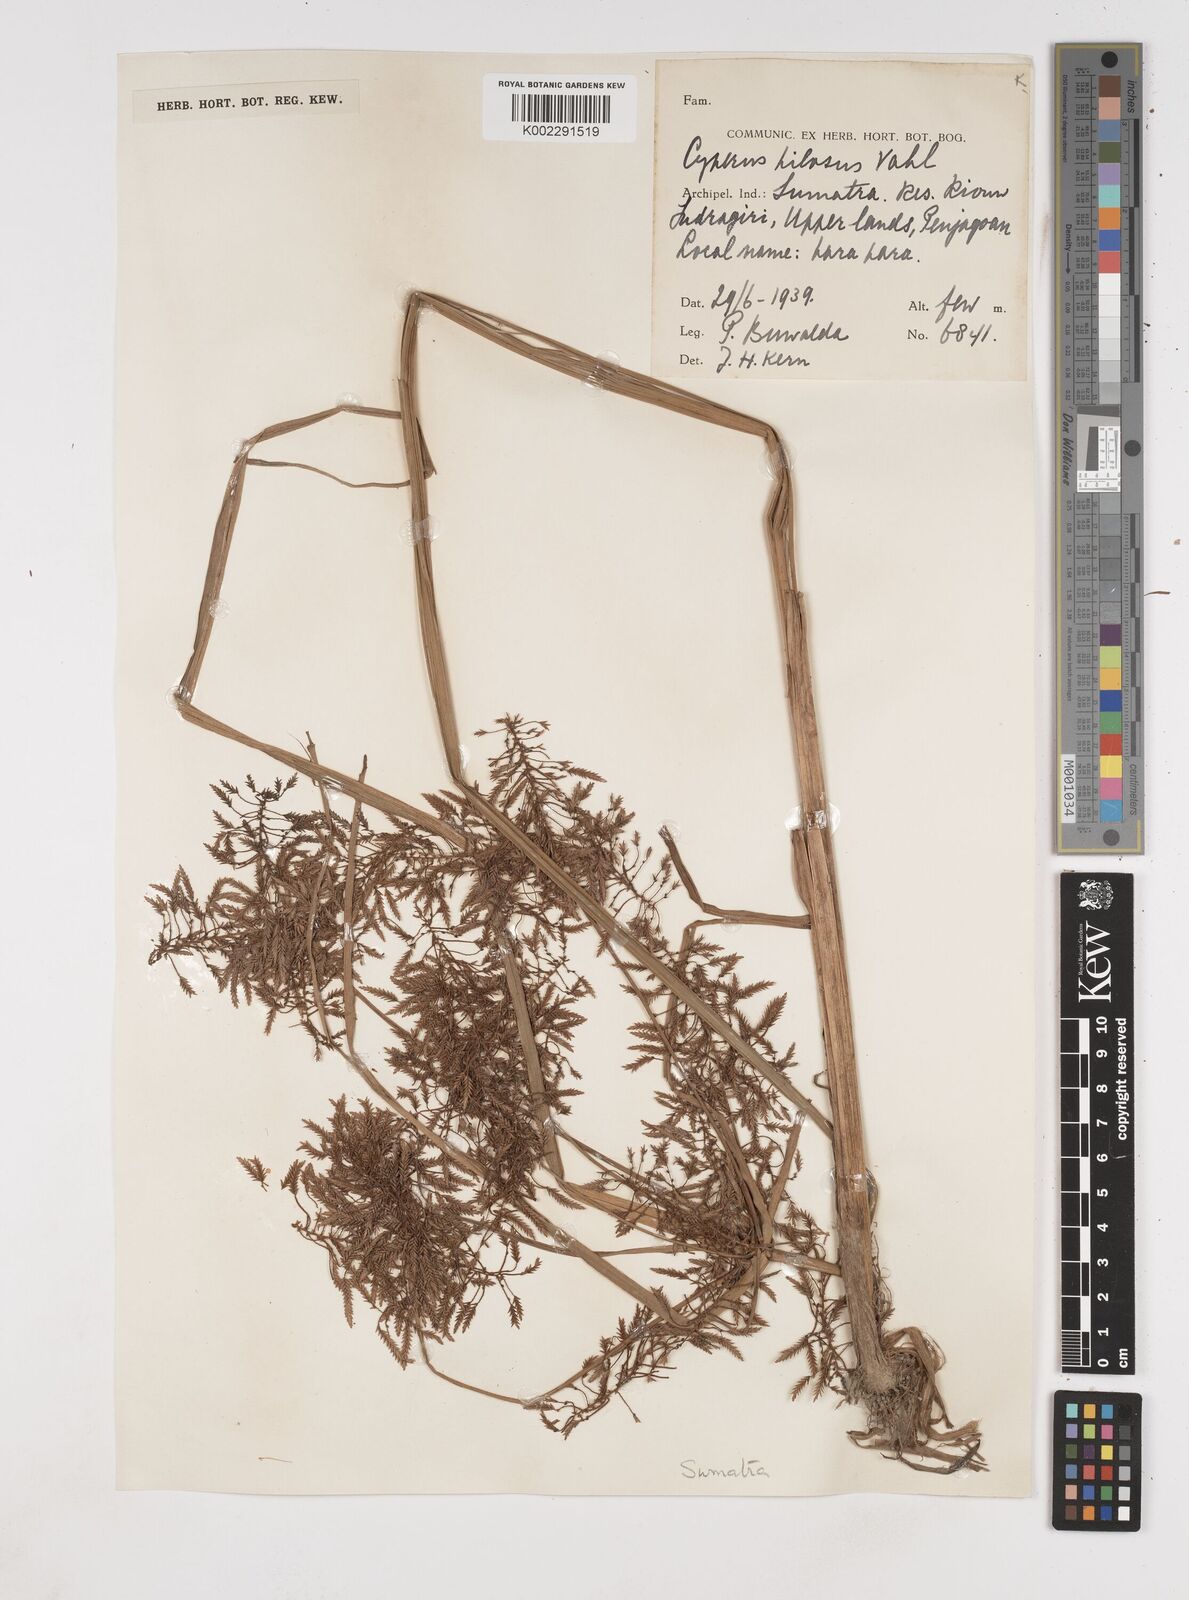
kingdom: Plantae
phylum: Tracheophyta
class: Liliopsida
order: Poales
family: Cyperaceae
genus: Cyperus
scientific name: Cyperus pilosus
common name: Fuzzy flatsedge
